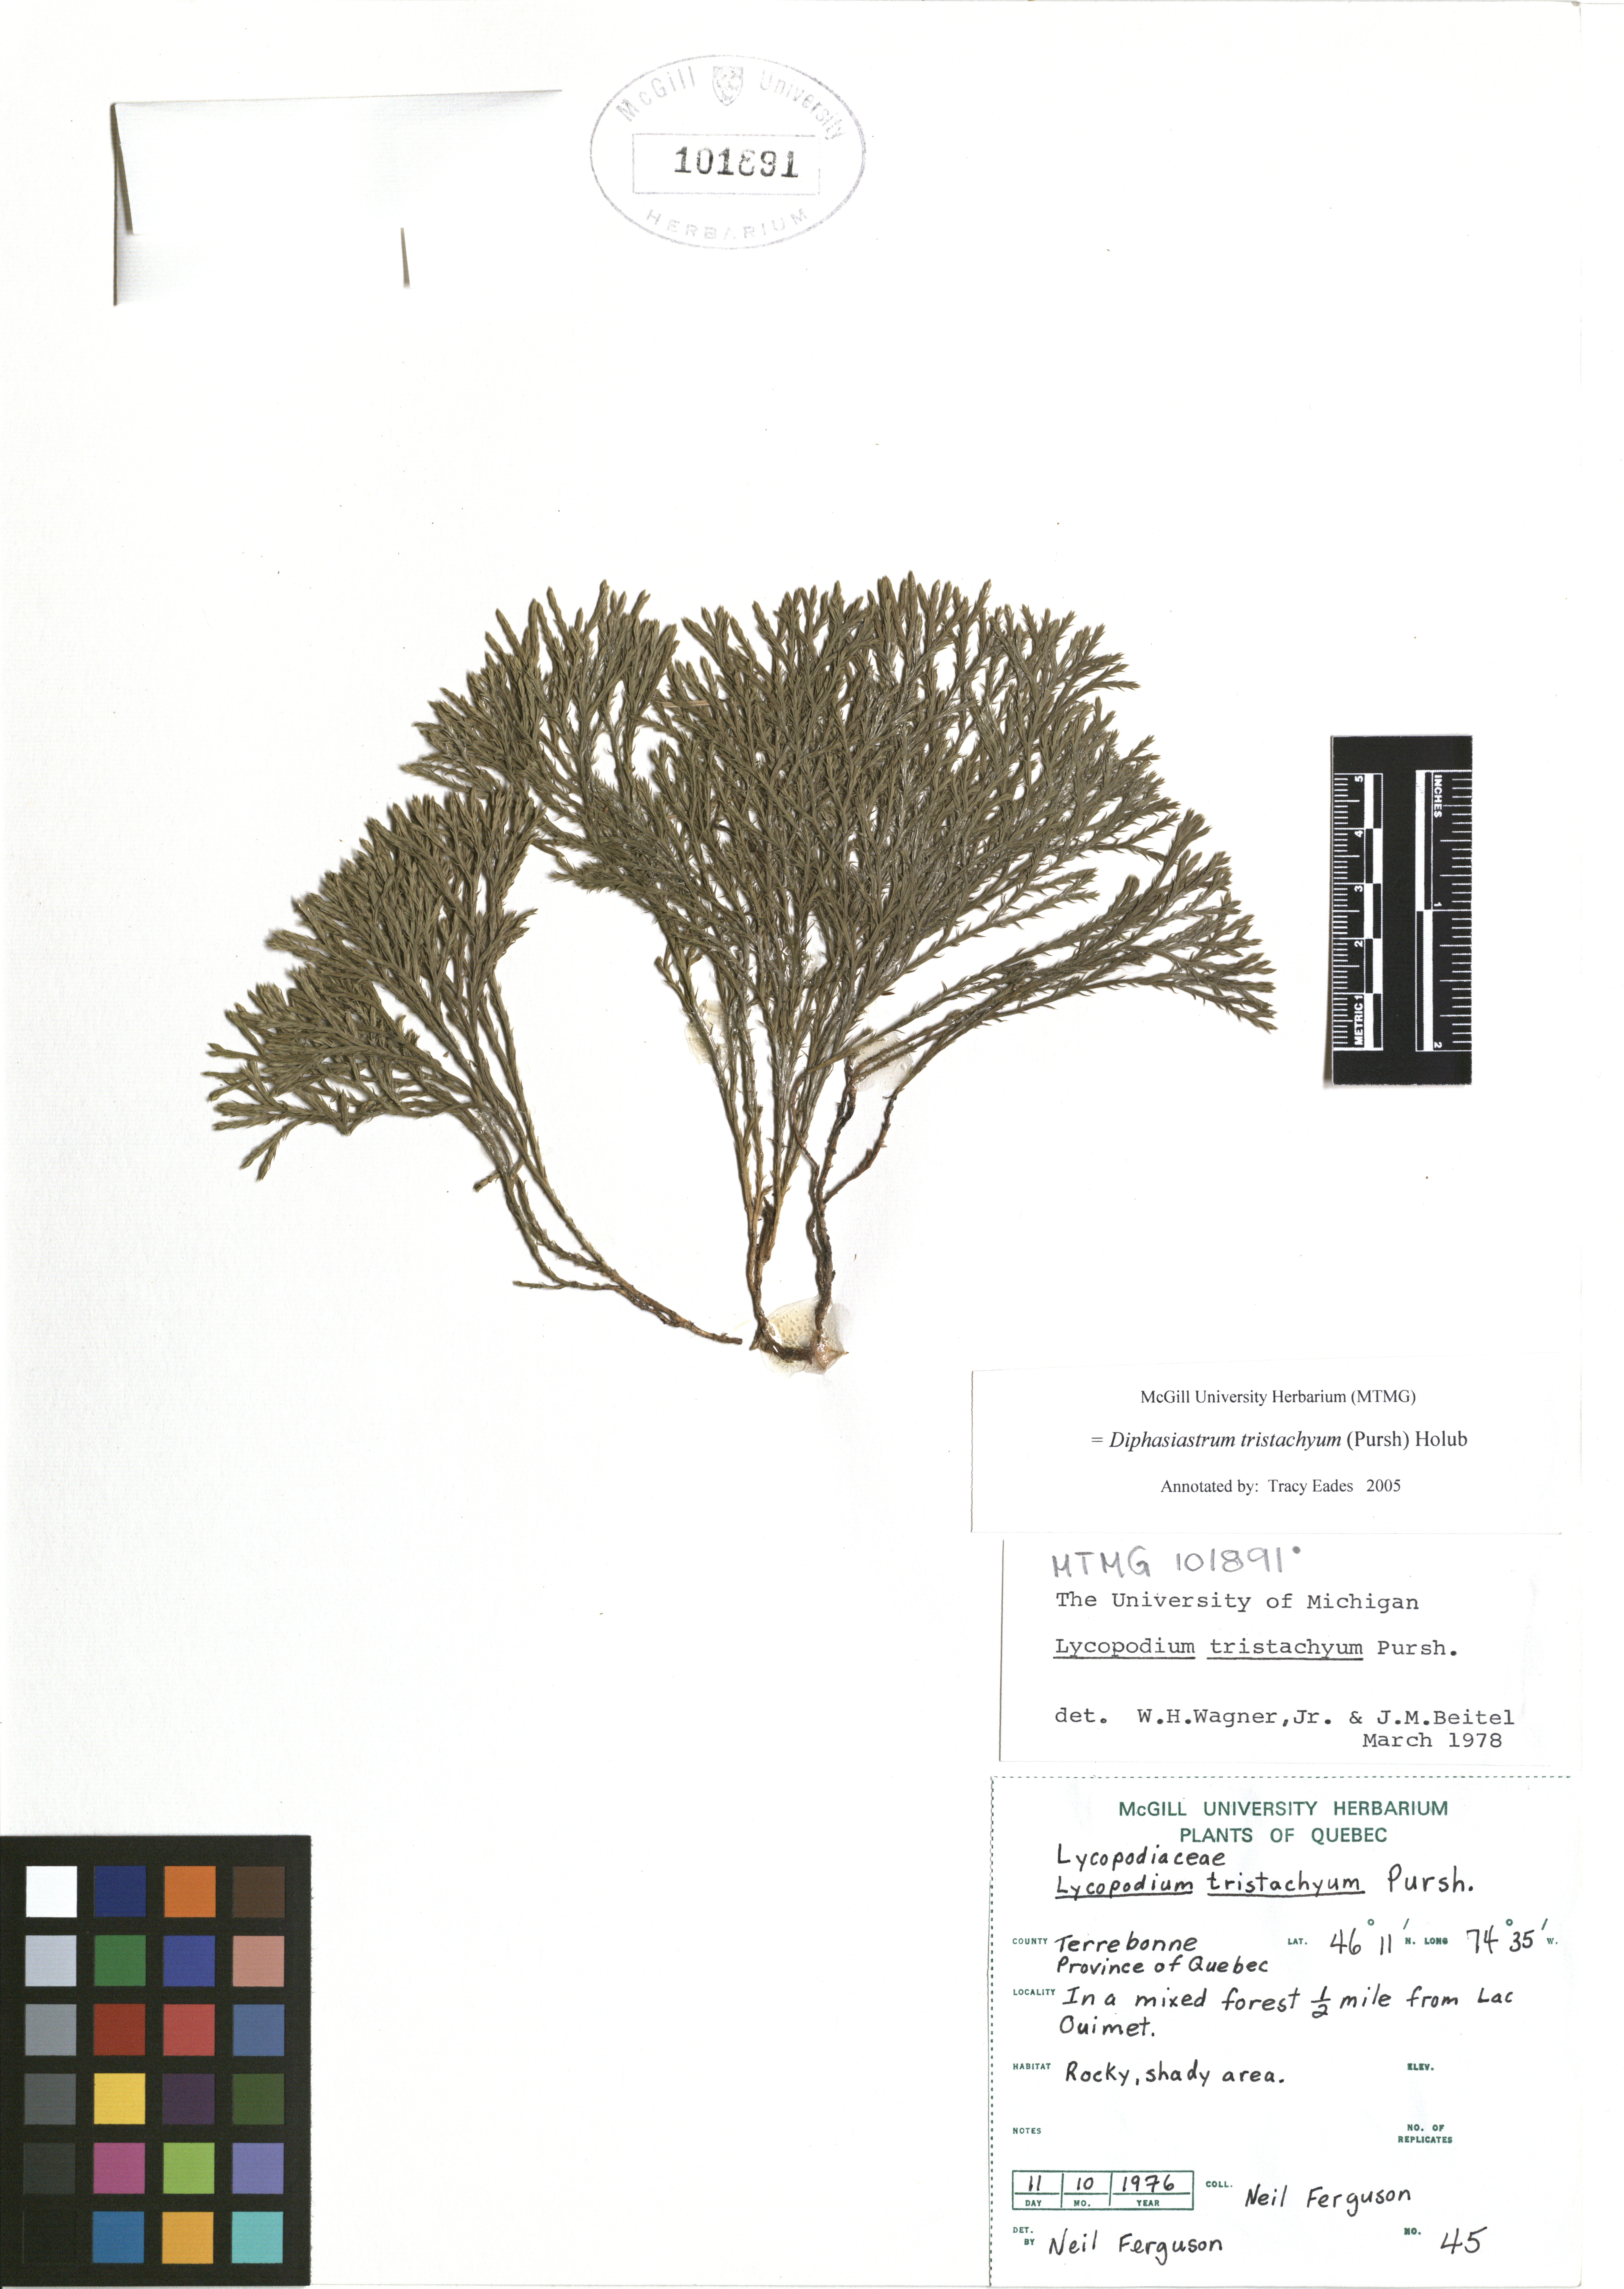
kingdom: Plantae
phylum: Tracheophyta
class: Lycopodiopsida
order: Lycopodiales
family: Lycopodiaceae
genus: Diphasiastrum
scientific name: Diphasiastrum tristachyum
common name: Blue ground-cedar
